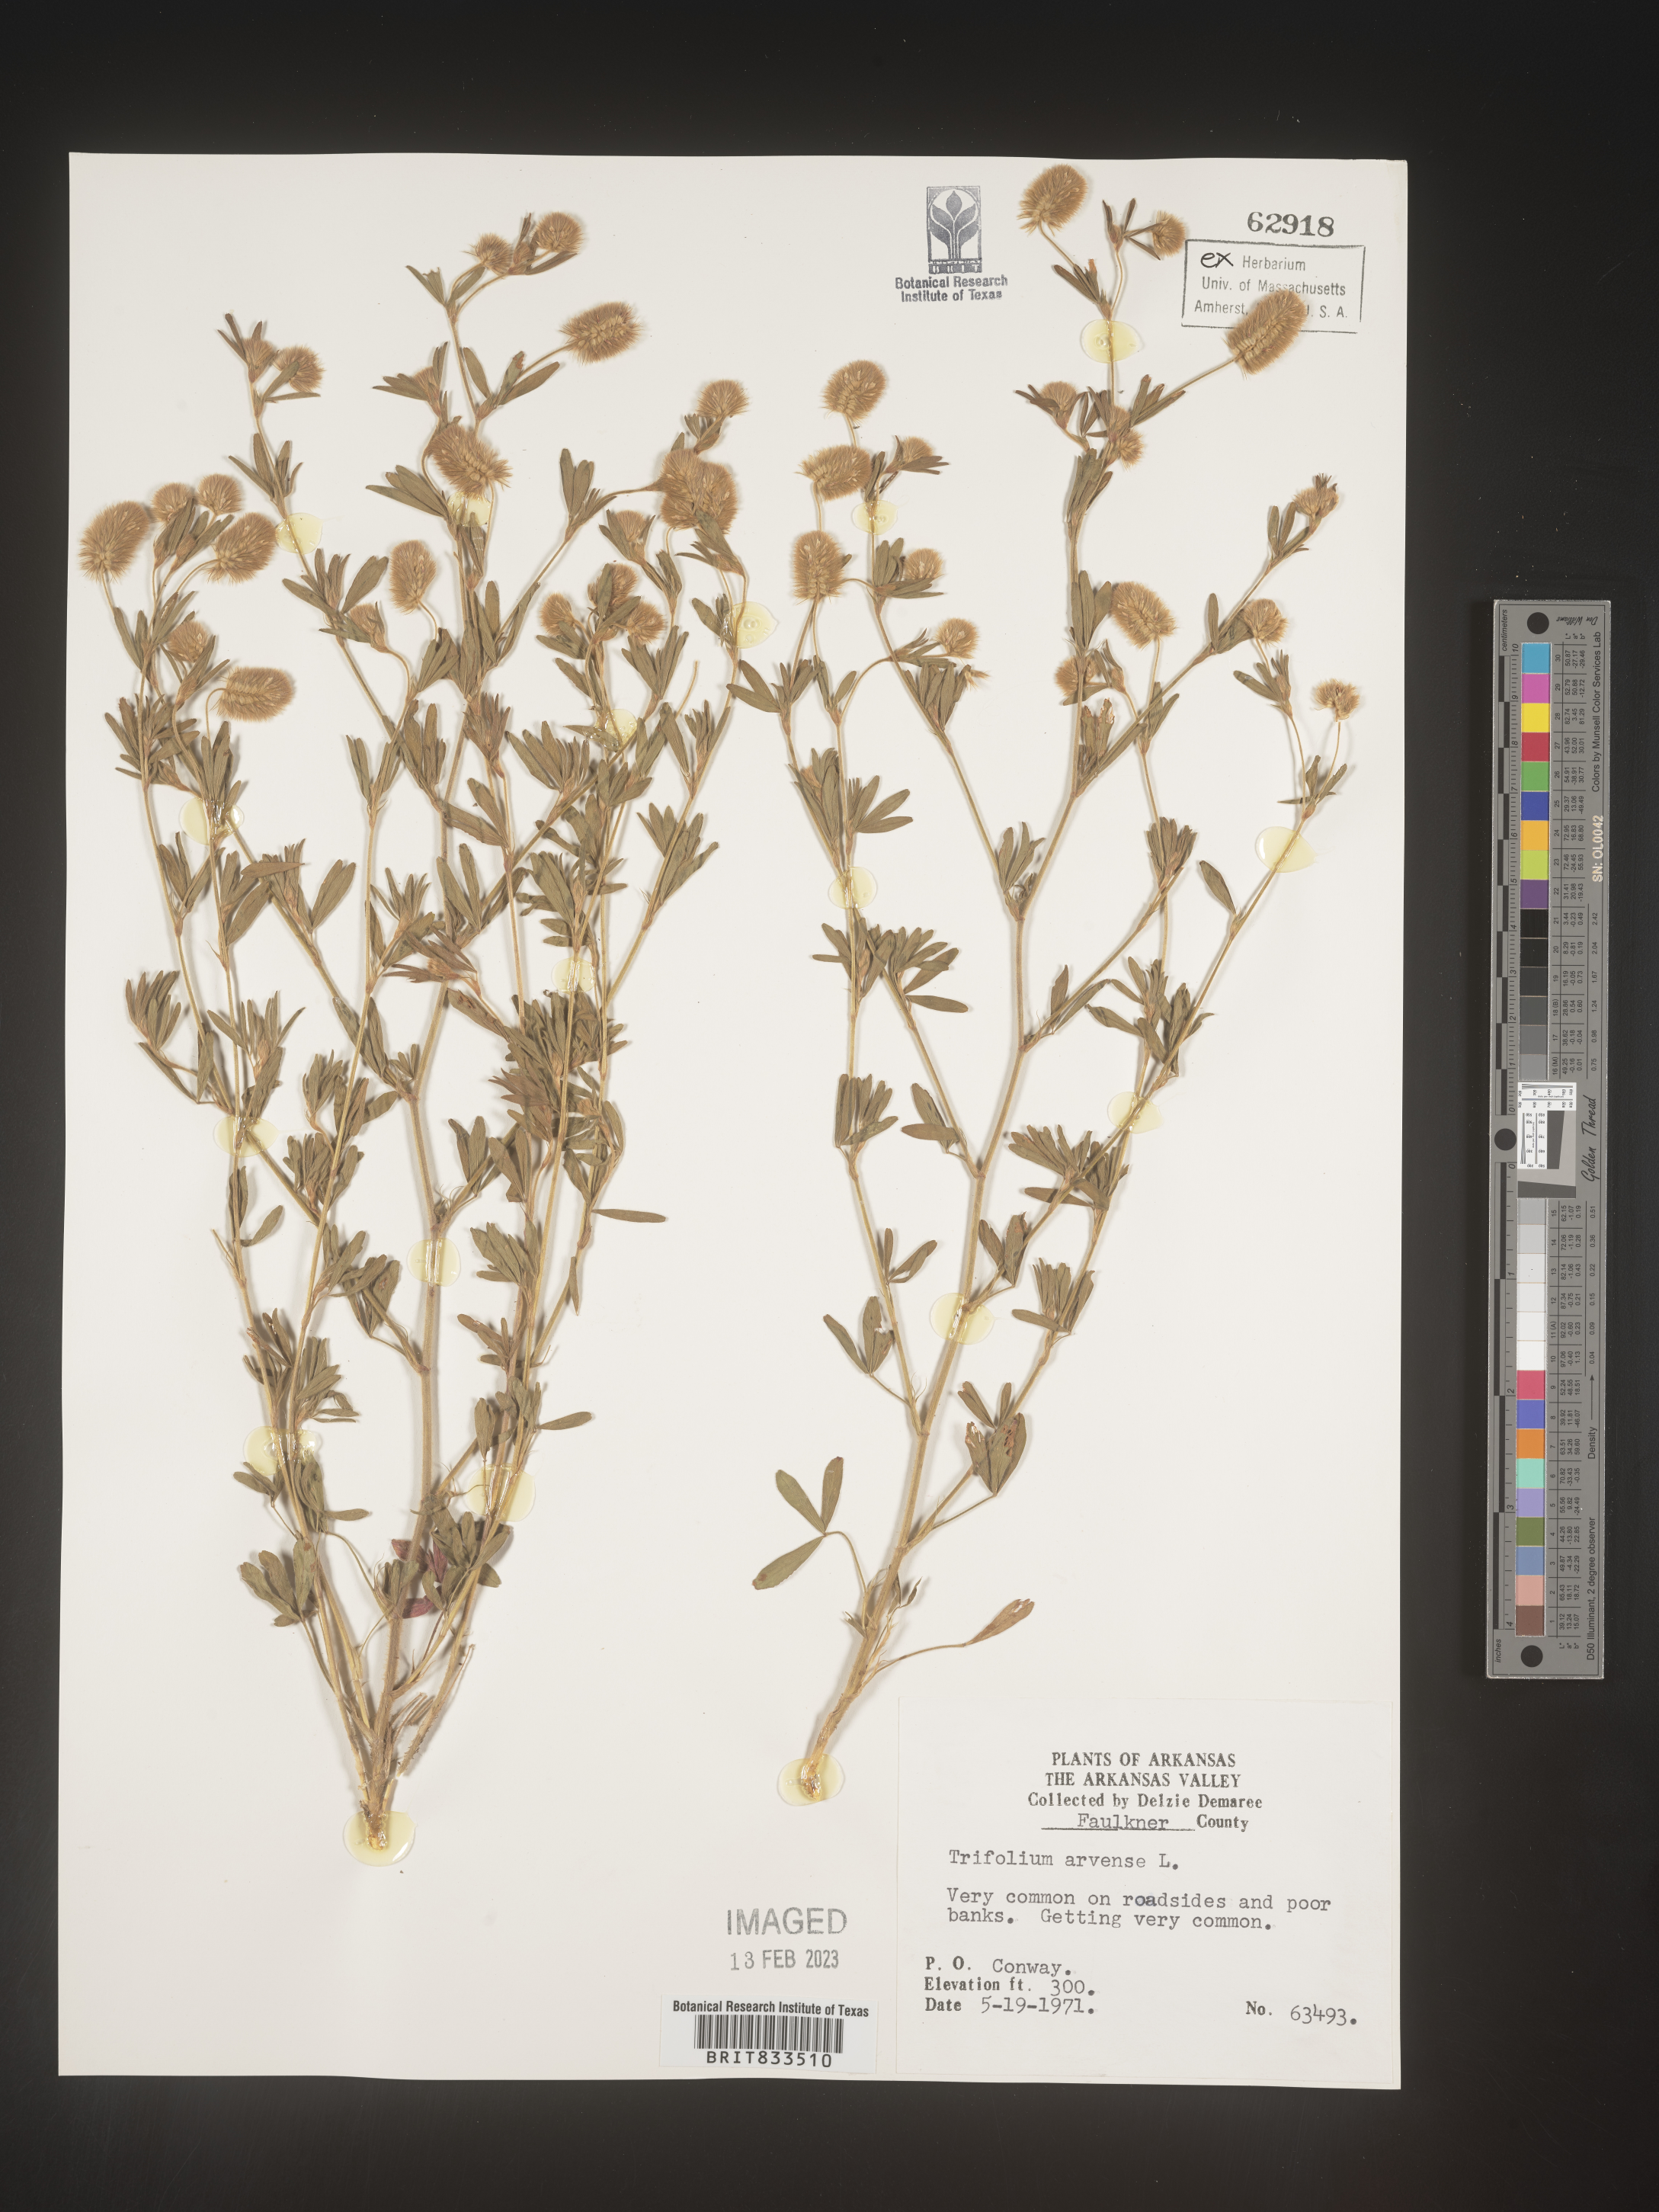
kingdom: Plantae
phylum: Tracheophyta
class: Magnoliopsida
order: Fabales
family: Fabaceae
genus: Trifolium
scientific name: Trifolium arvense
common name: Hare's-foot clover
